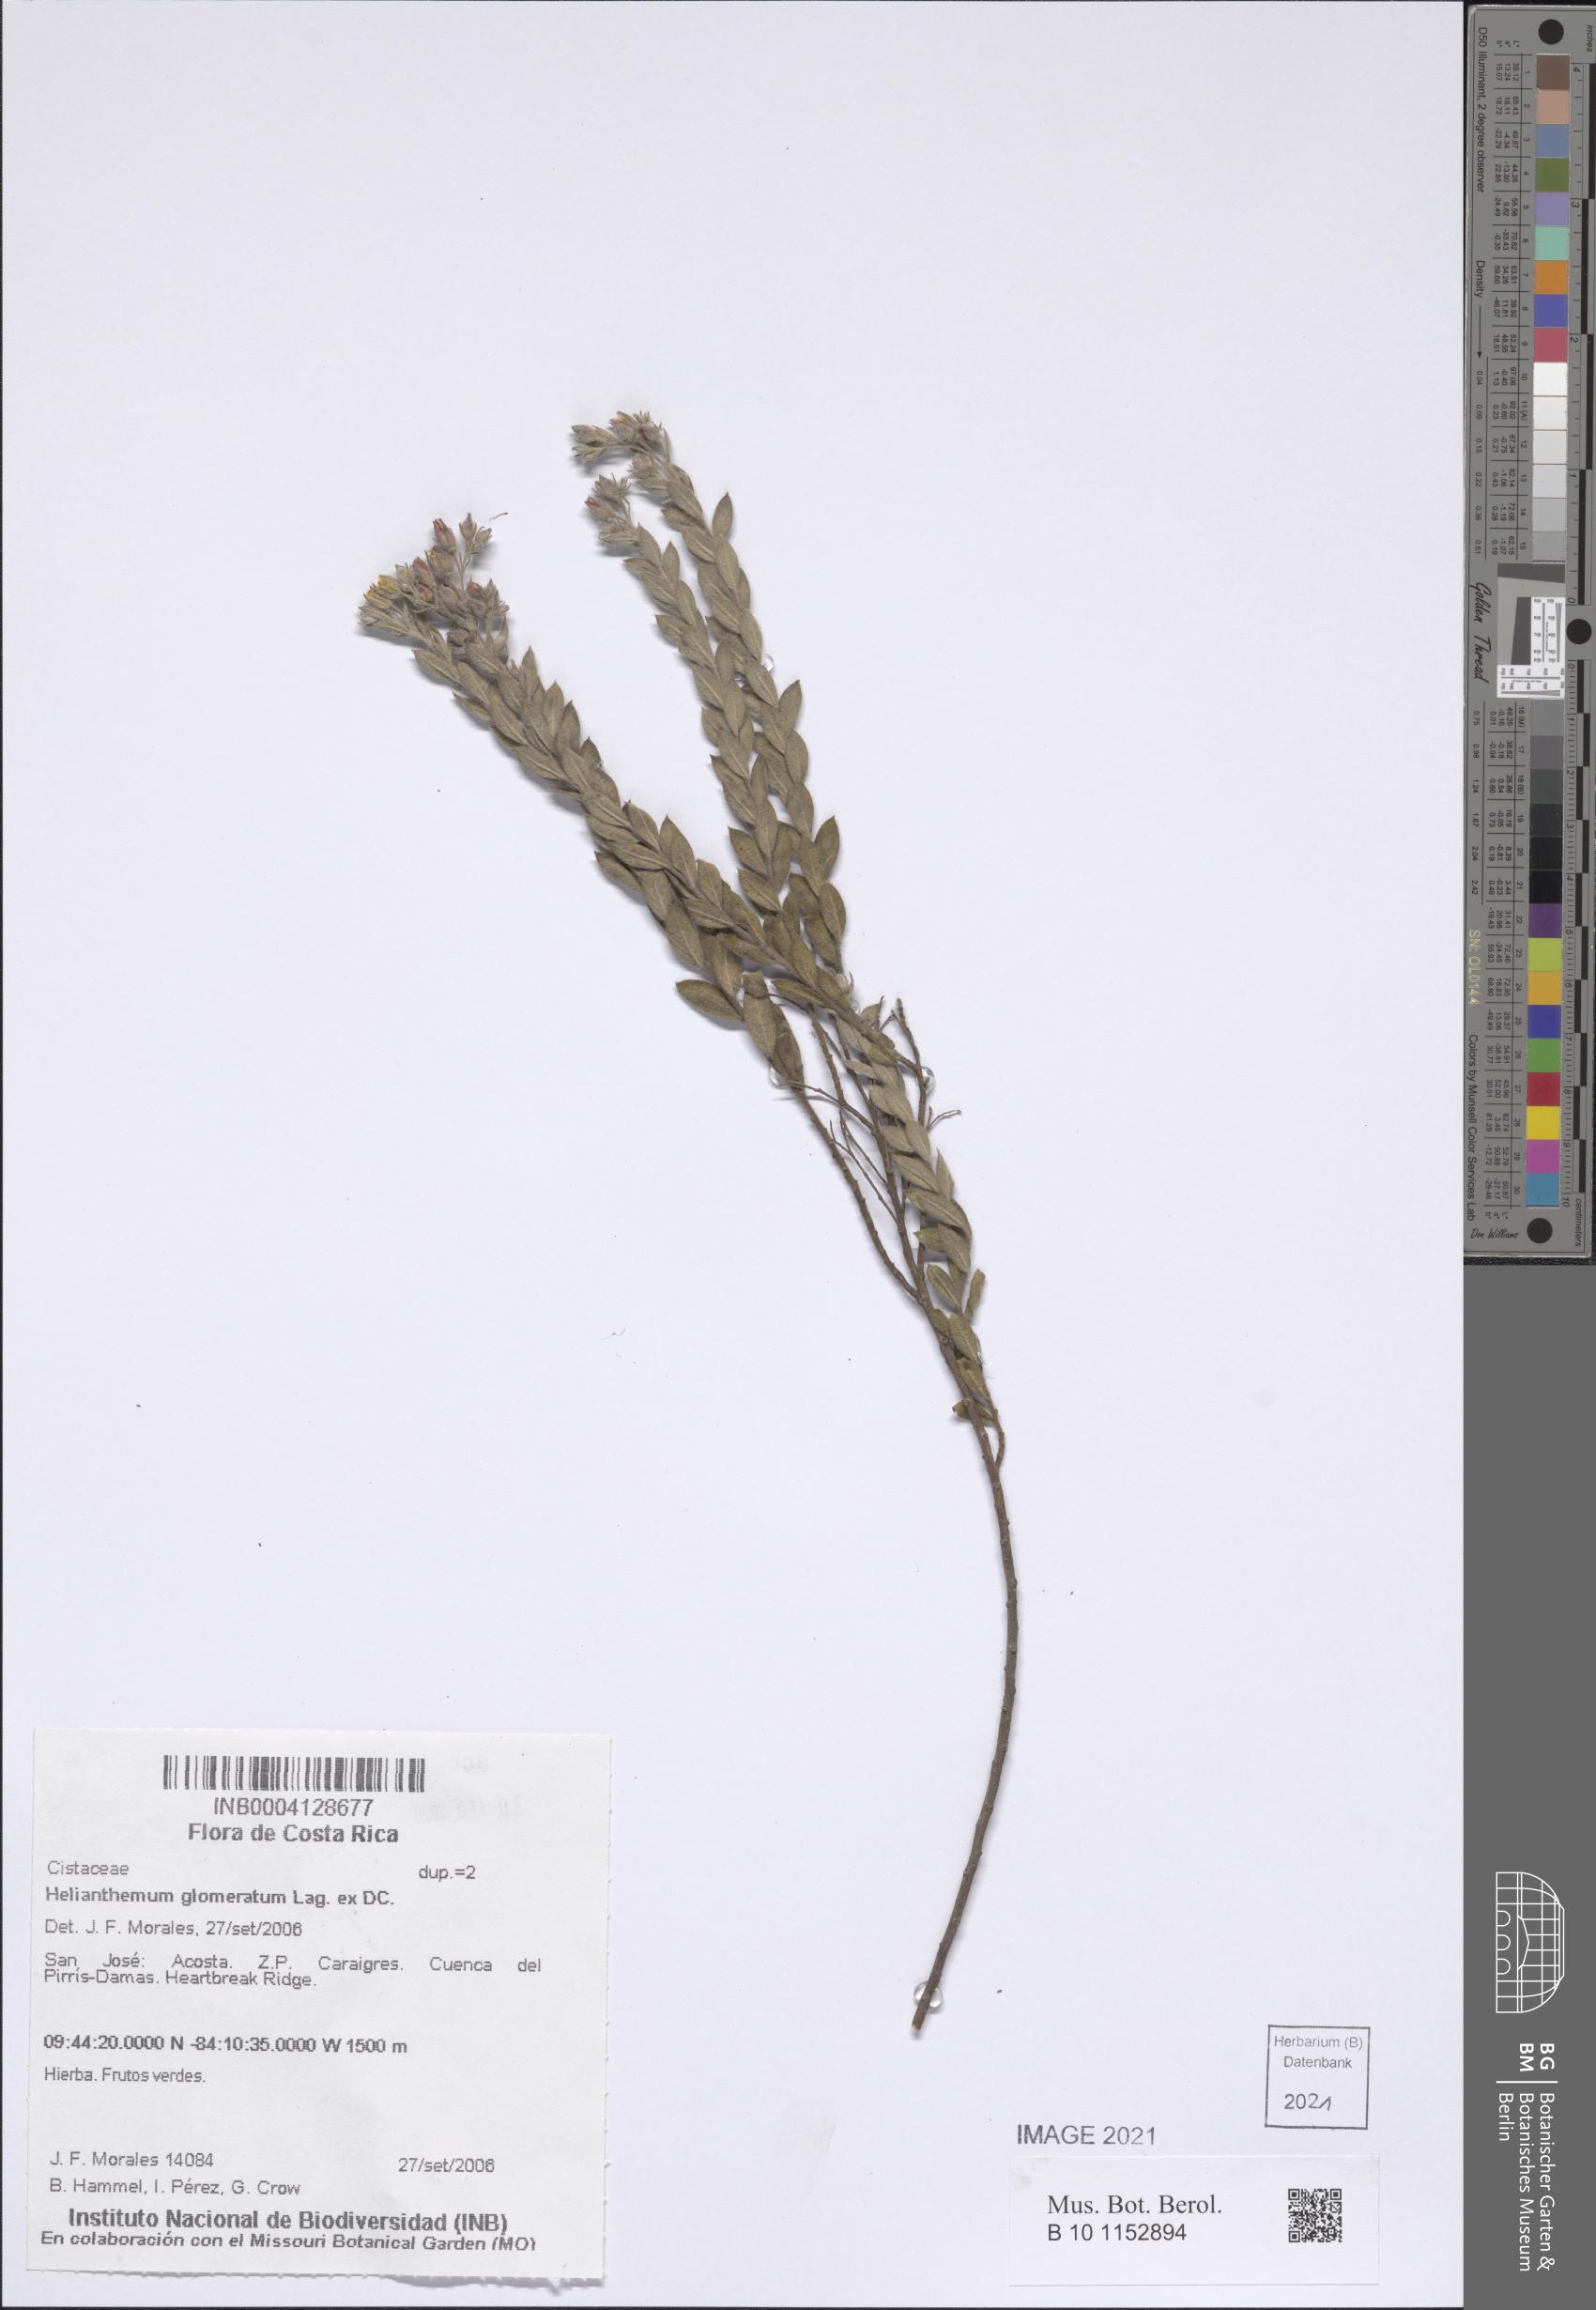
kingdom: Plantae
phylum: Tracheophyta
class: Magnoliopsida
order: Malvales
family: Cistaceae
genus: Crocanthemum
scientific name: Crocanthemum glomeratum
